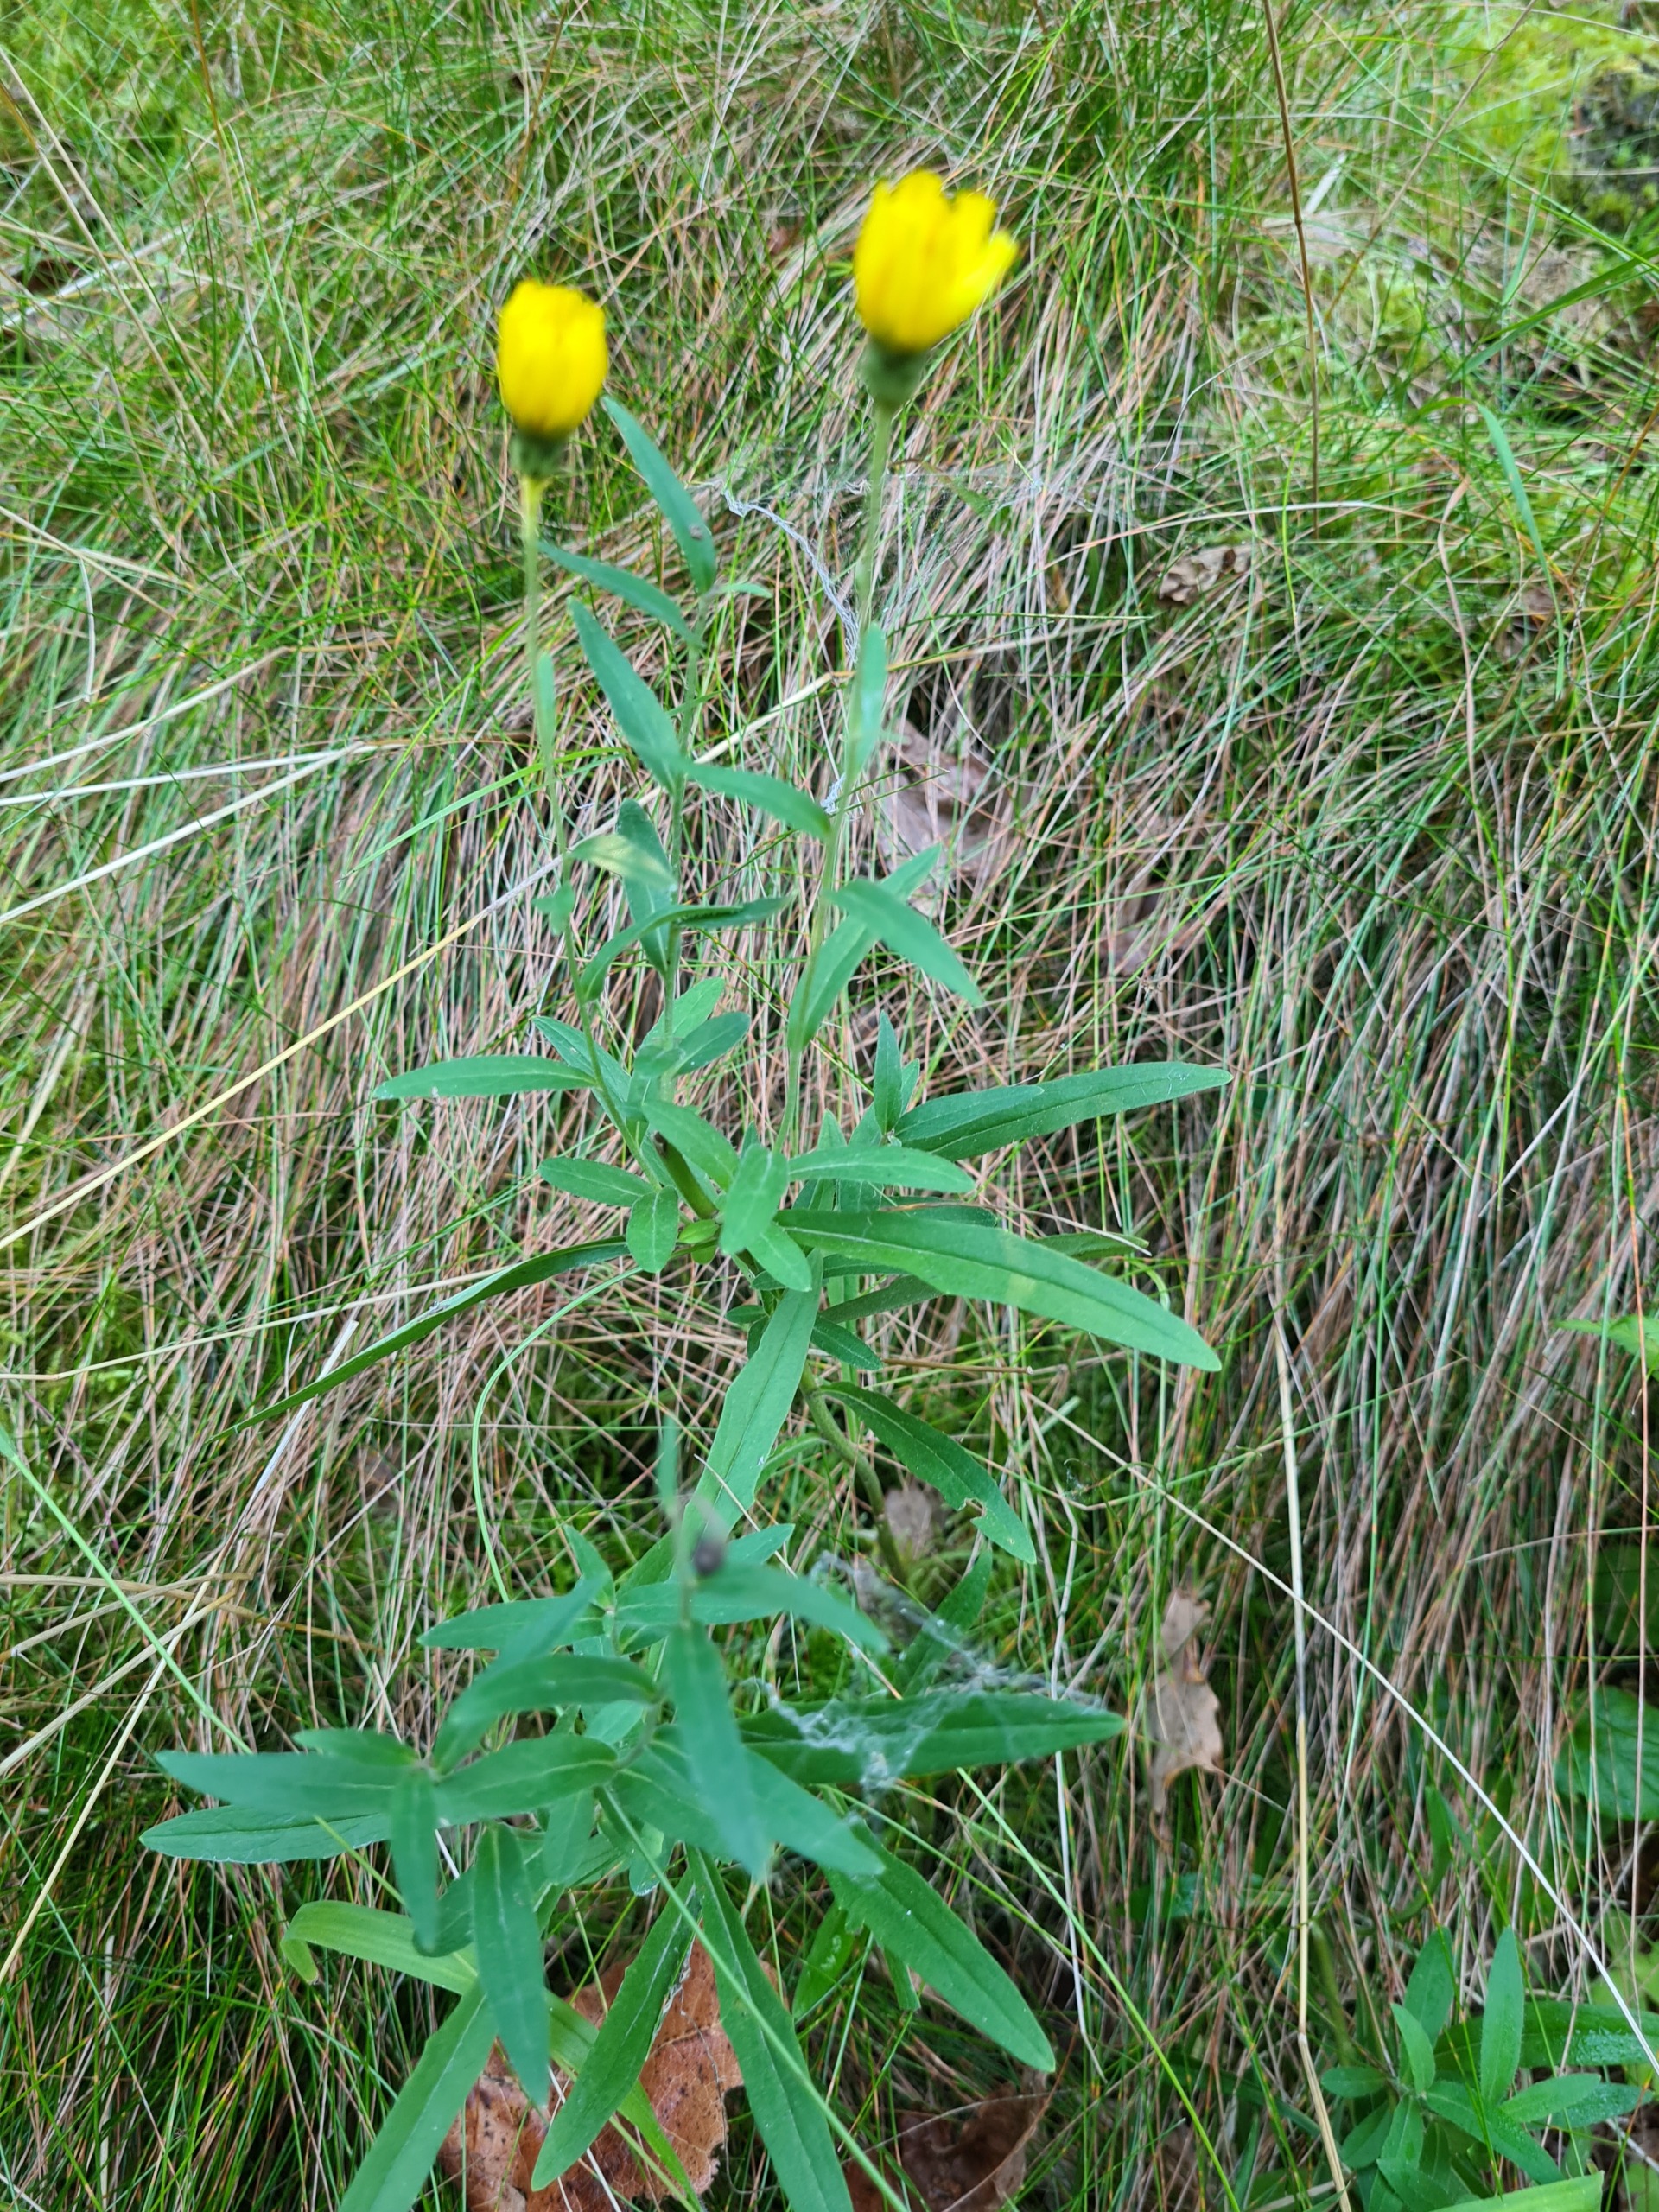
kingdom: Plantae
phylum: Tracheophyta
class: Magnoliopsida
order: Asterales
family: Asteraceae
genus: Hieracium
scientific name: Hieracium umbellatum
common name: Smalbladet høgeurt
